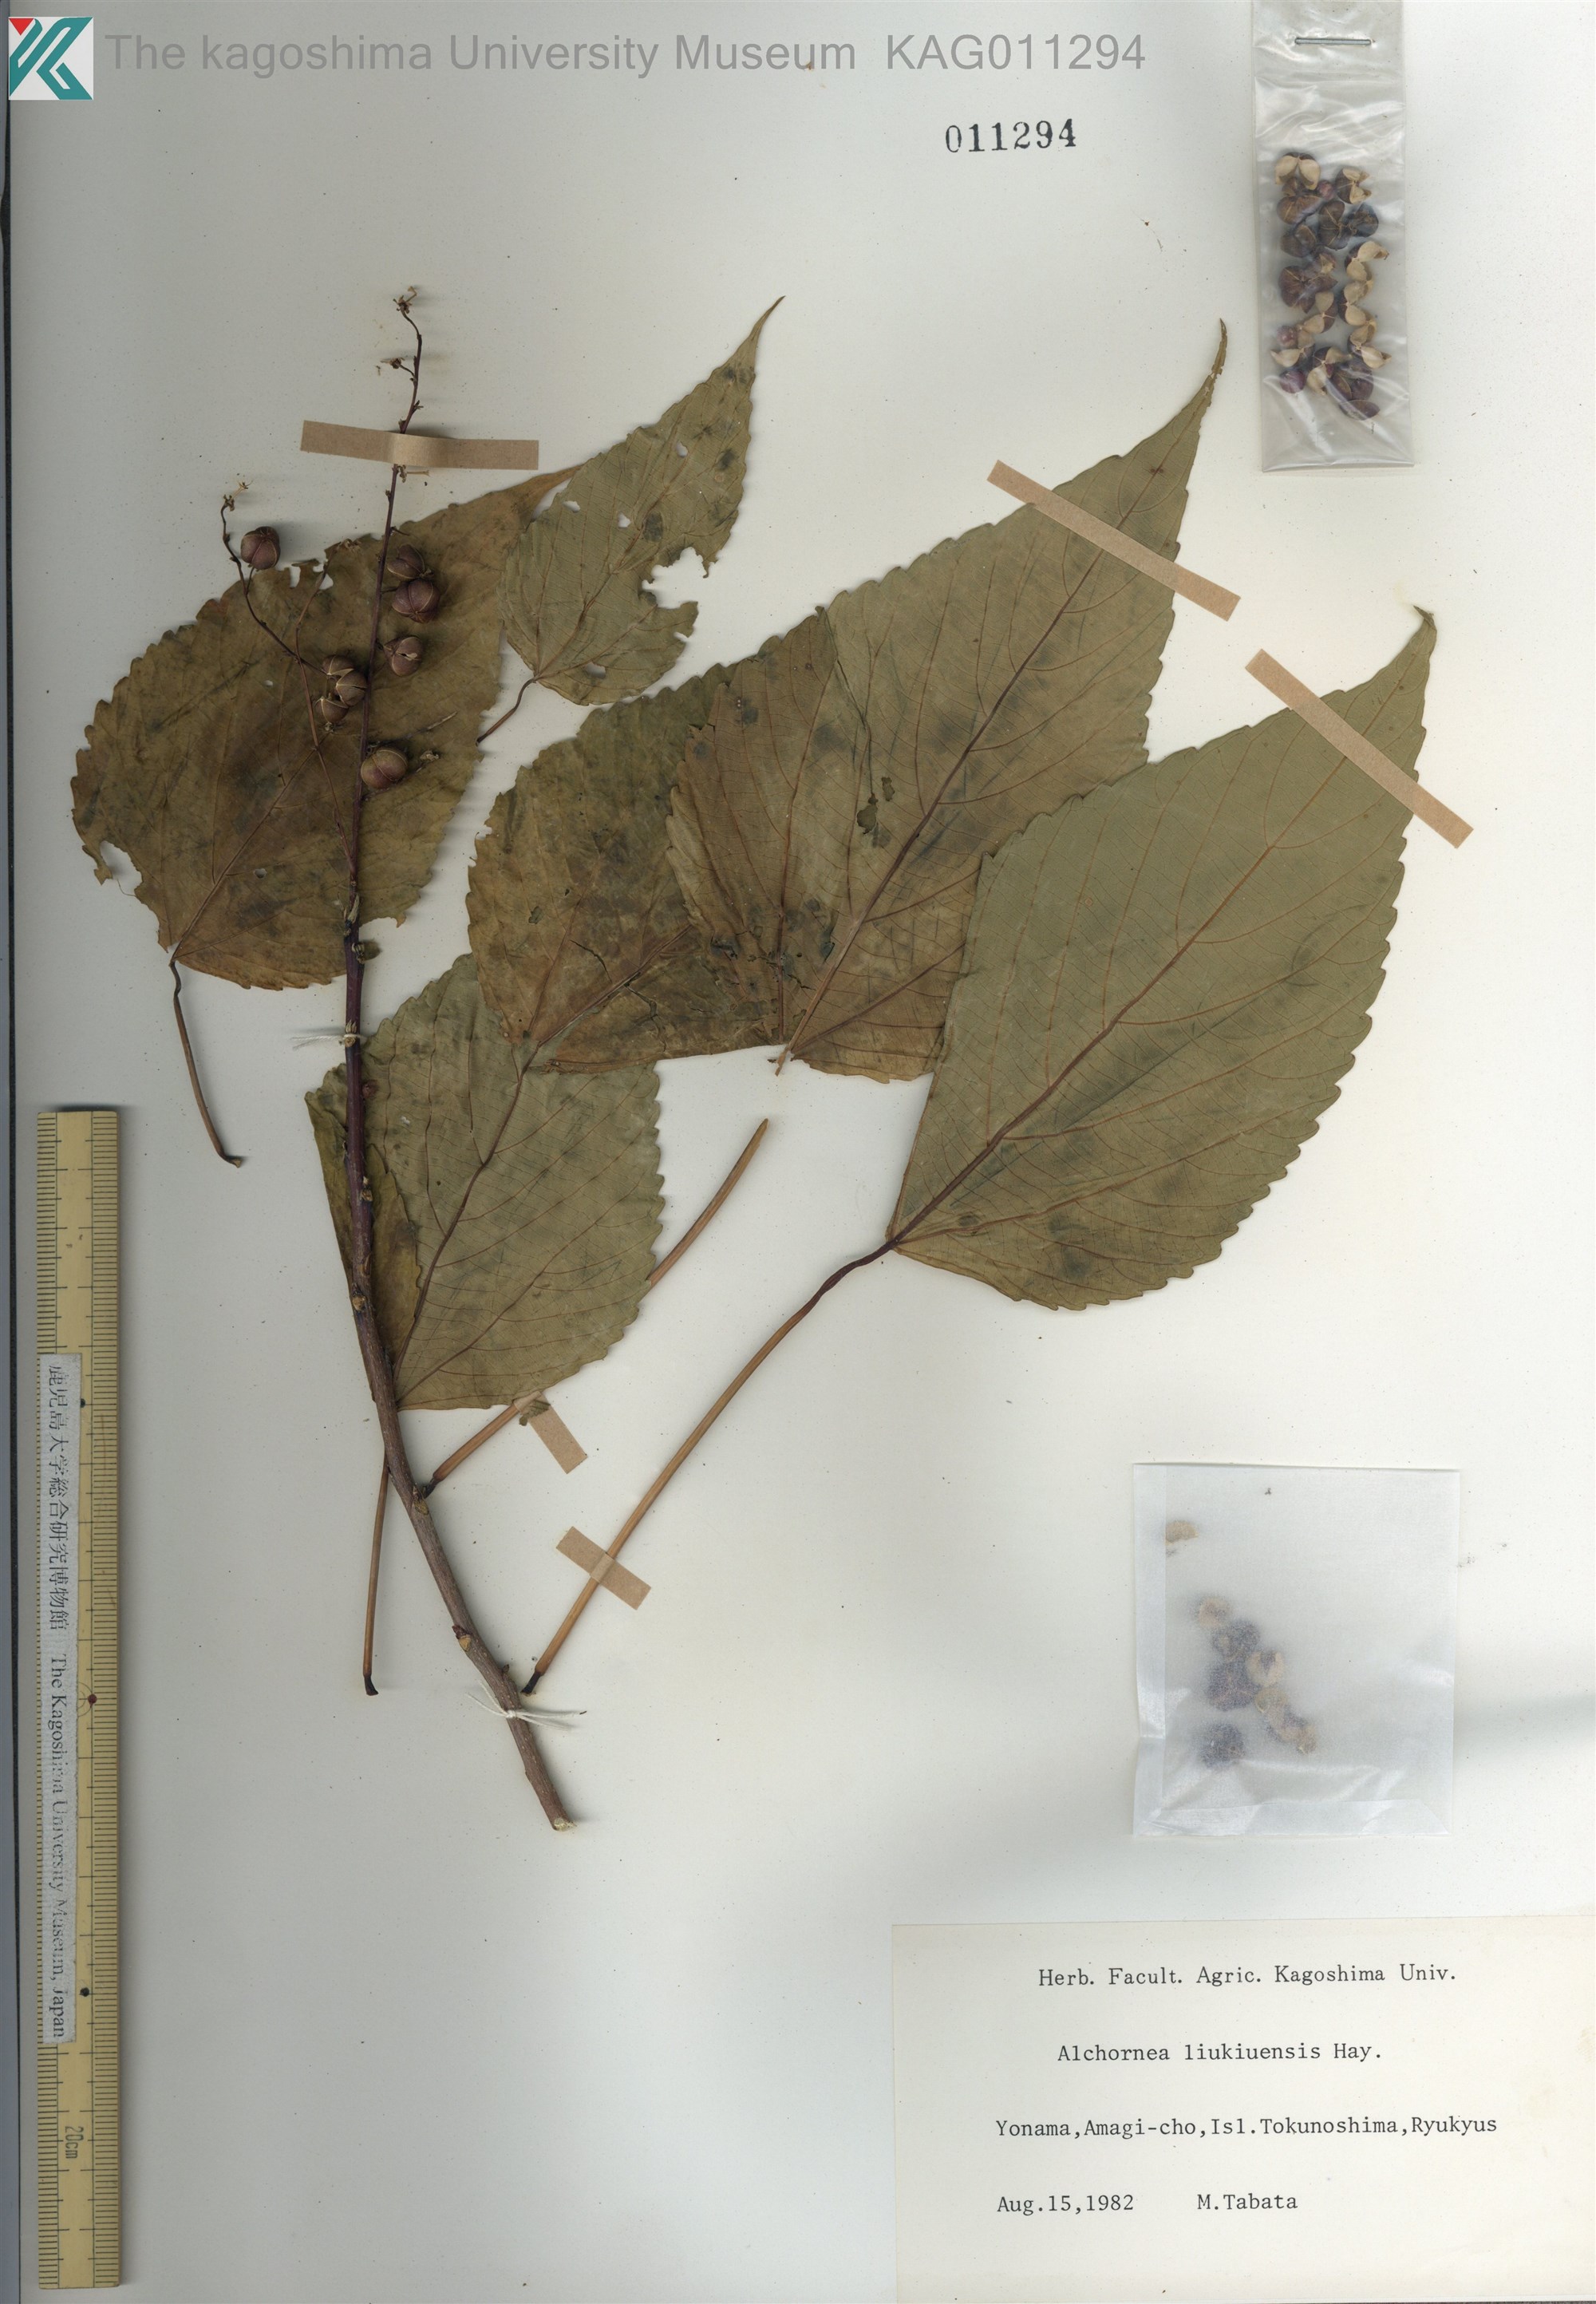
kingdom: Plantae
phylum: Tracheophyta
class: Magnoliopsida
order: Malpighiales
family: Euphorbiaceae
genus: Alchornea
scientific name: Alchornea liukiuensis
